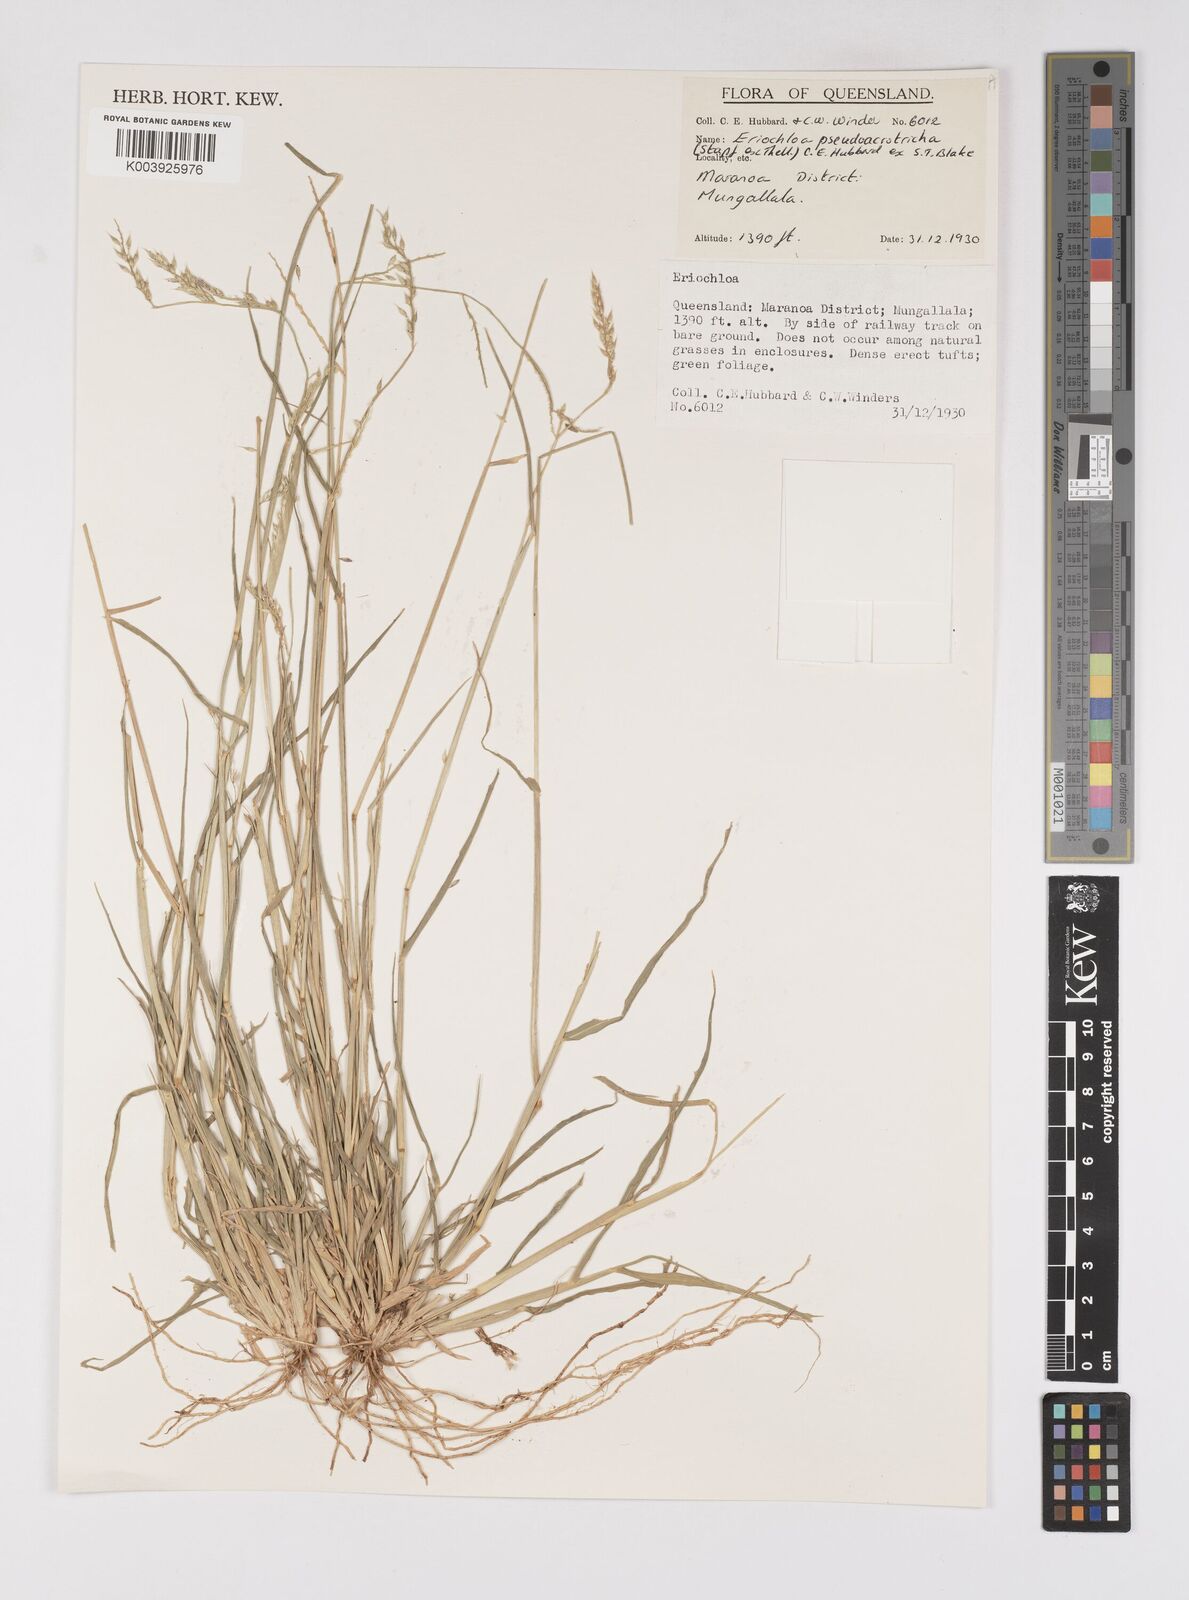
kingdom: Plantae
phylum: Tracheophyta
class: Liliopsida
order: Poales
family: Poaceae
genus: Eriochloa
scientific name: Eriochloa pseudoacrotricha
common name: Perennial cup-grass
